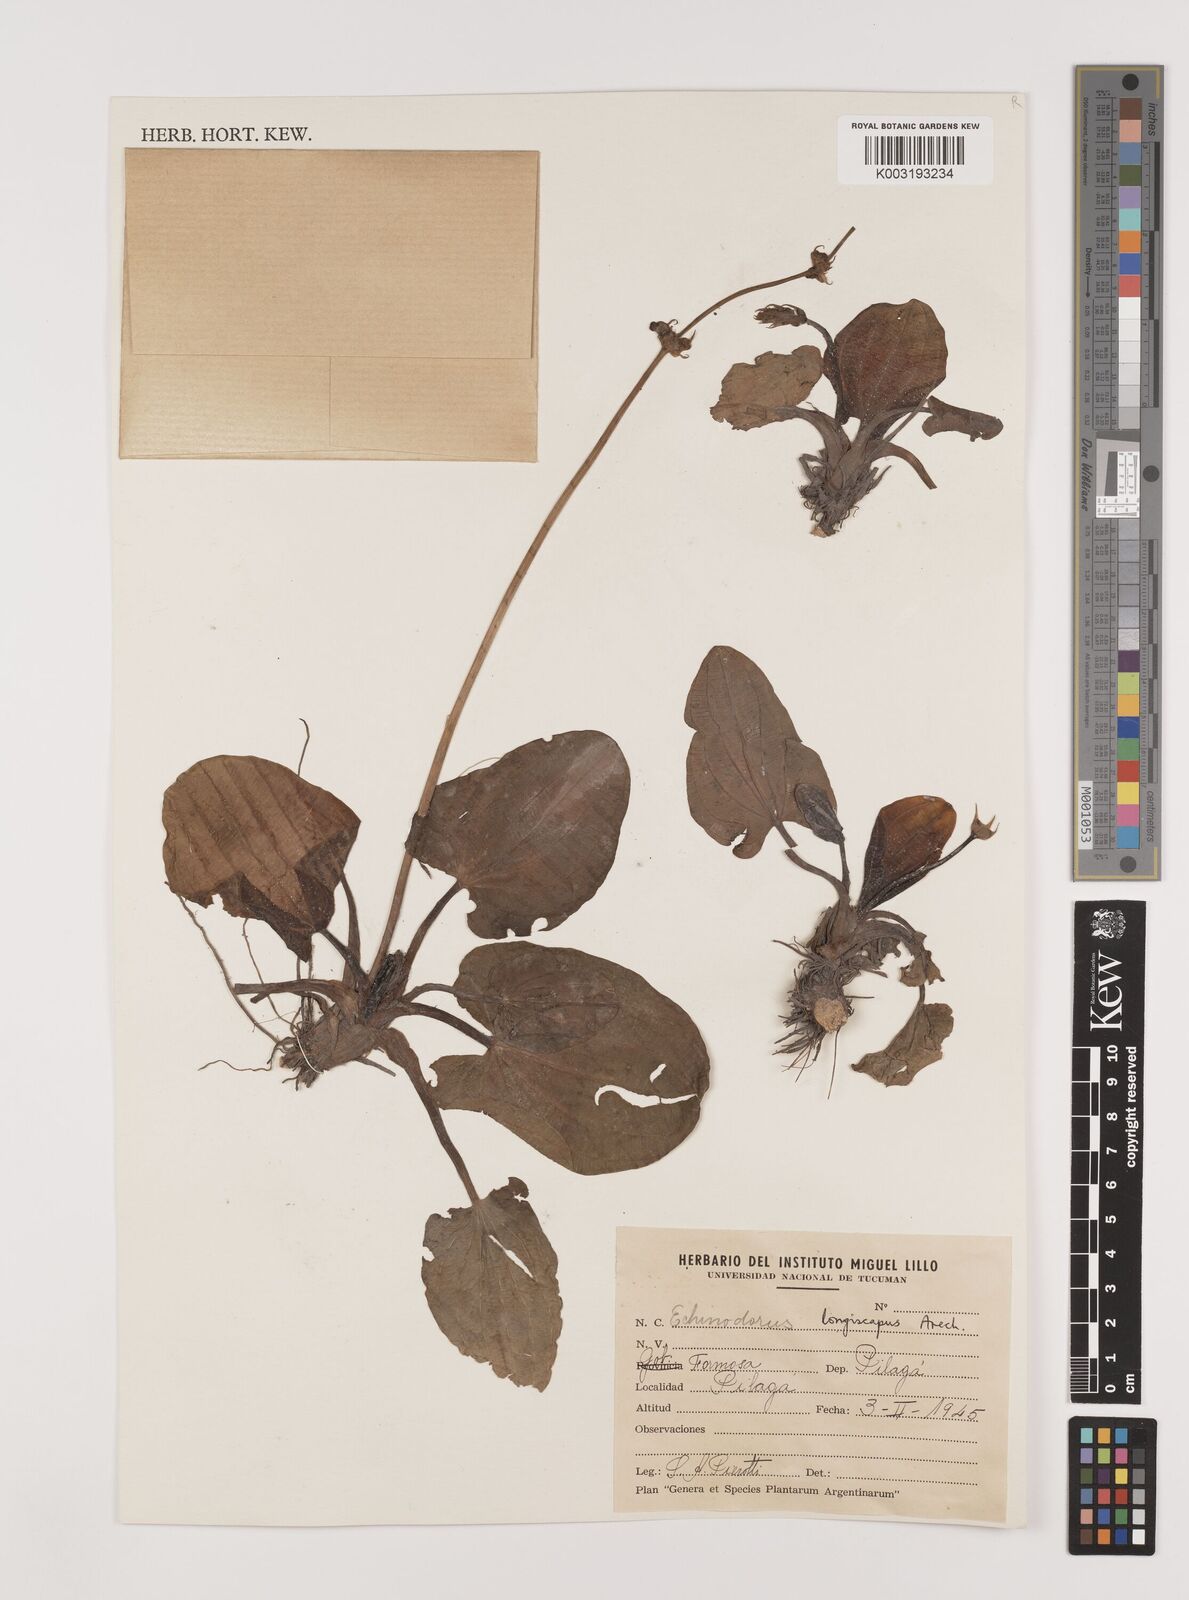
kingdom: Plantae
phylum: Tracheophyta
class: Liliopsida
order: Alismatales
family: Alismataceae
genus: Aquarius
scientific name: Aquarius longiscapus
